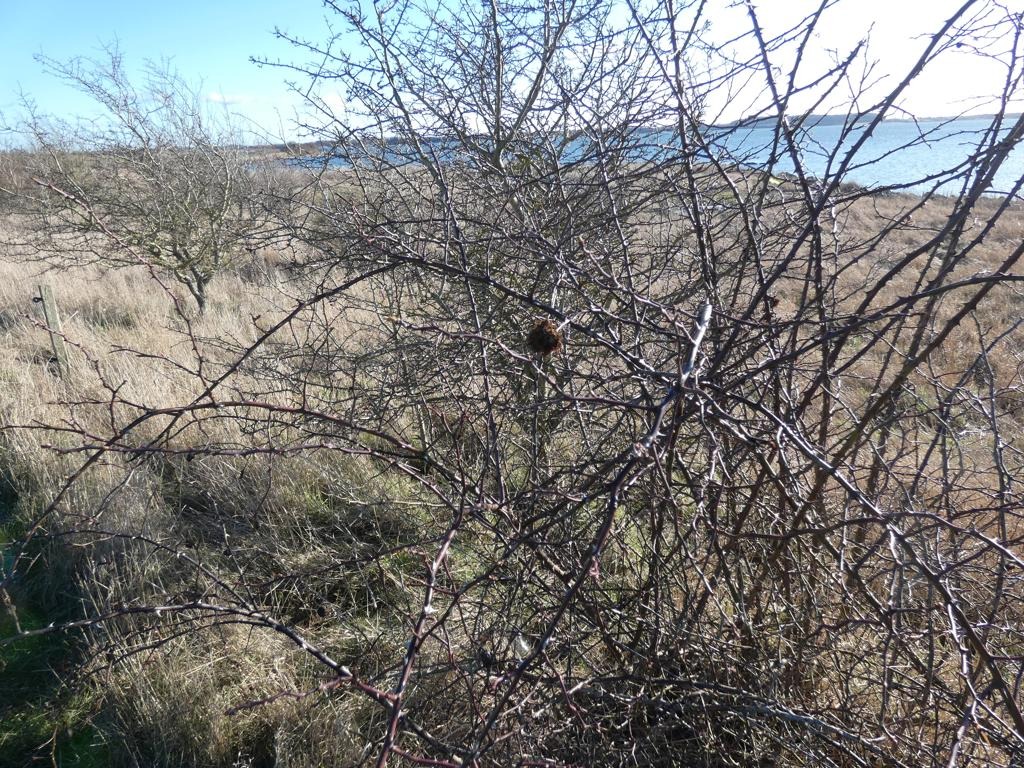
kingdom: Animalia
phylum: Arthropoda
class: Insecta
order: Hymenoptera
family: Cynipidae
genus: Diplolepis
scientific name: Diplolepis rosae
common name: Bedeguargalhveps
